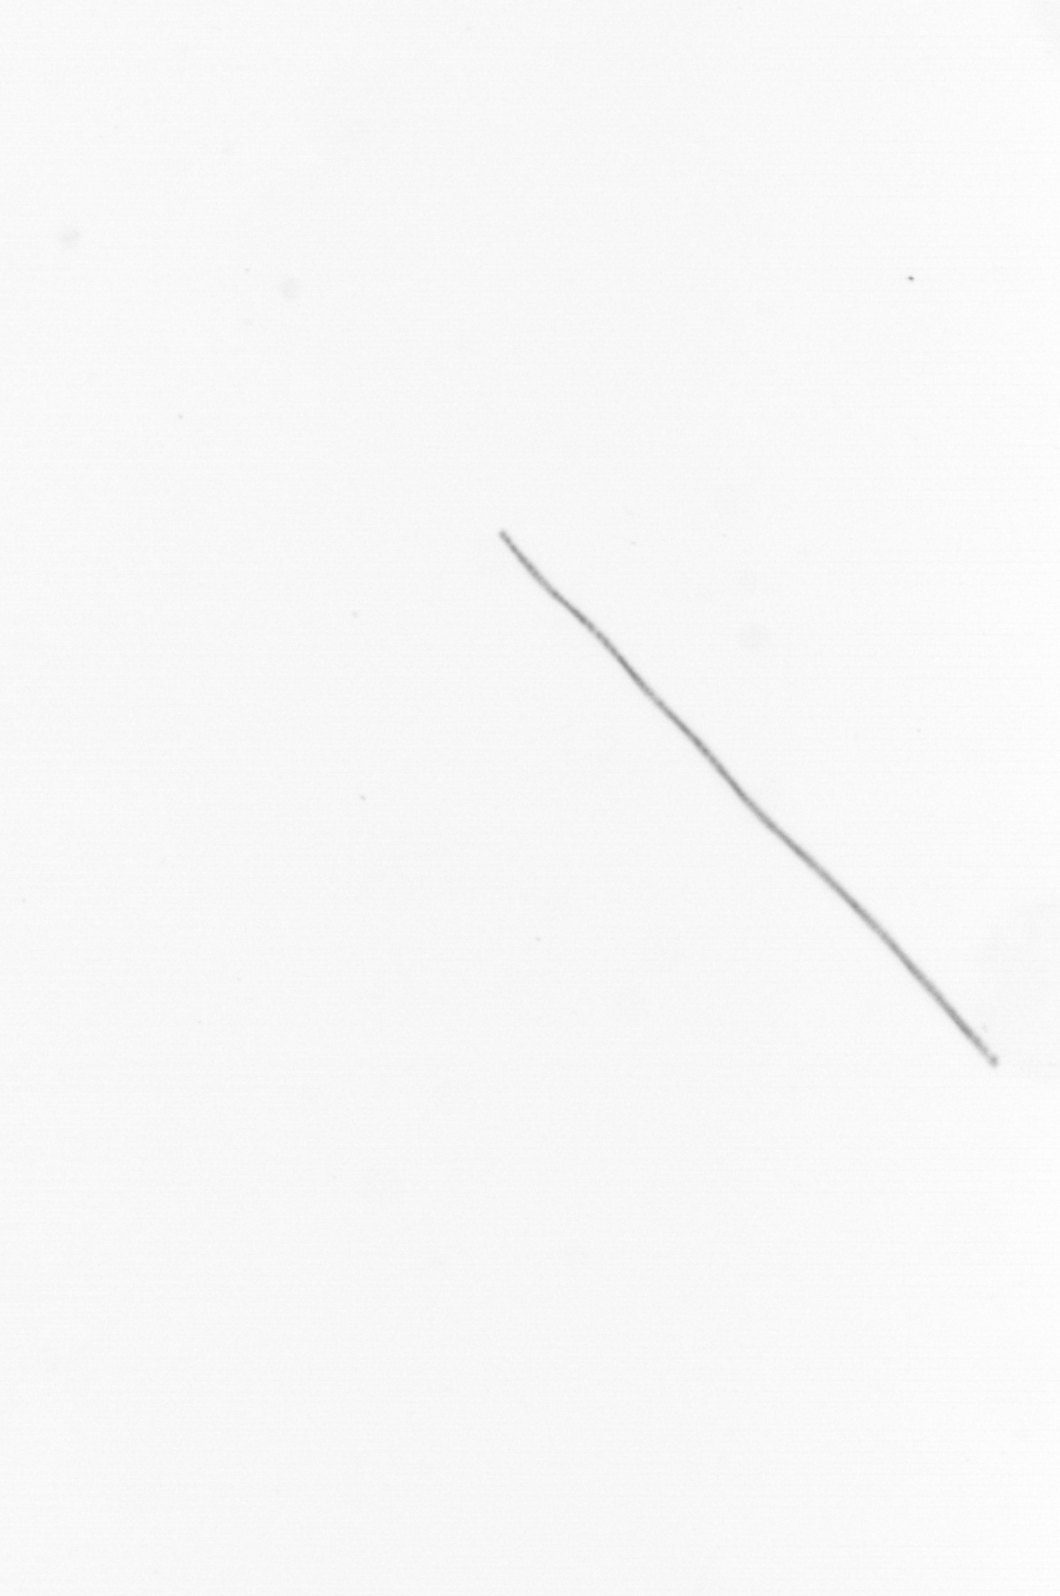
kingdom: Chromista
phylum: Ochrophyta
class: Bacillariophyceae
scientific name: Bacillariophyceae
